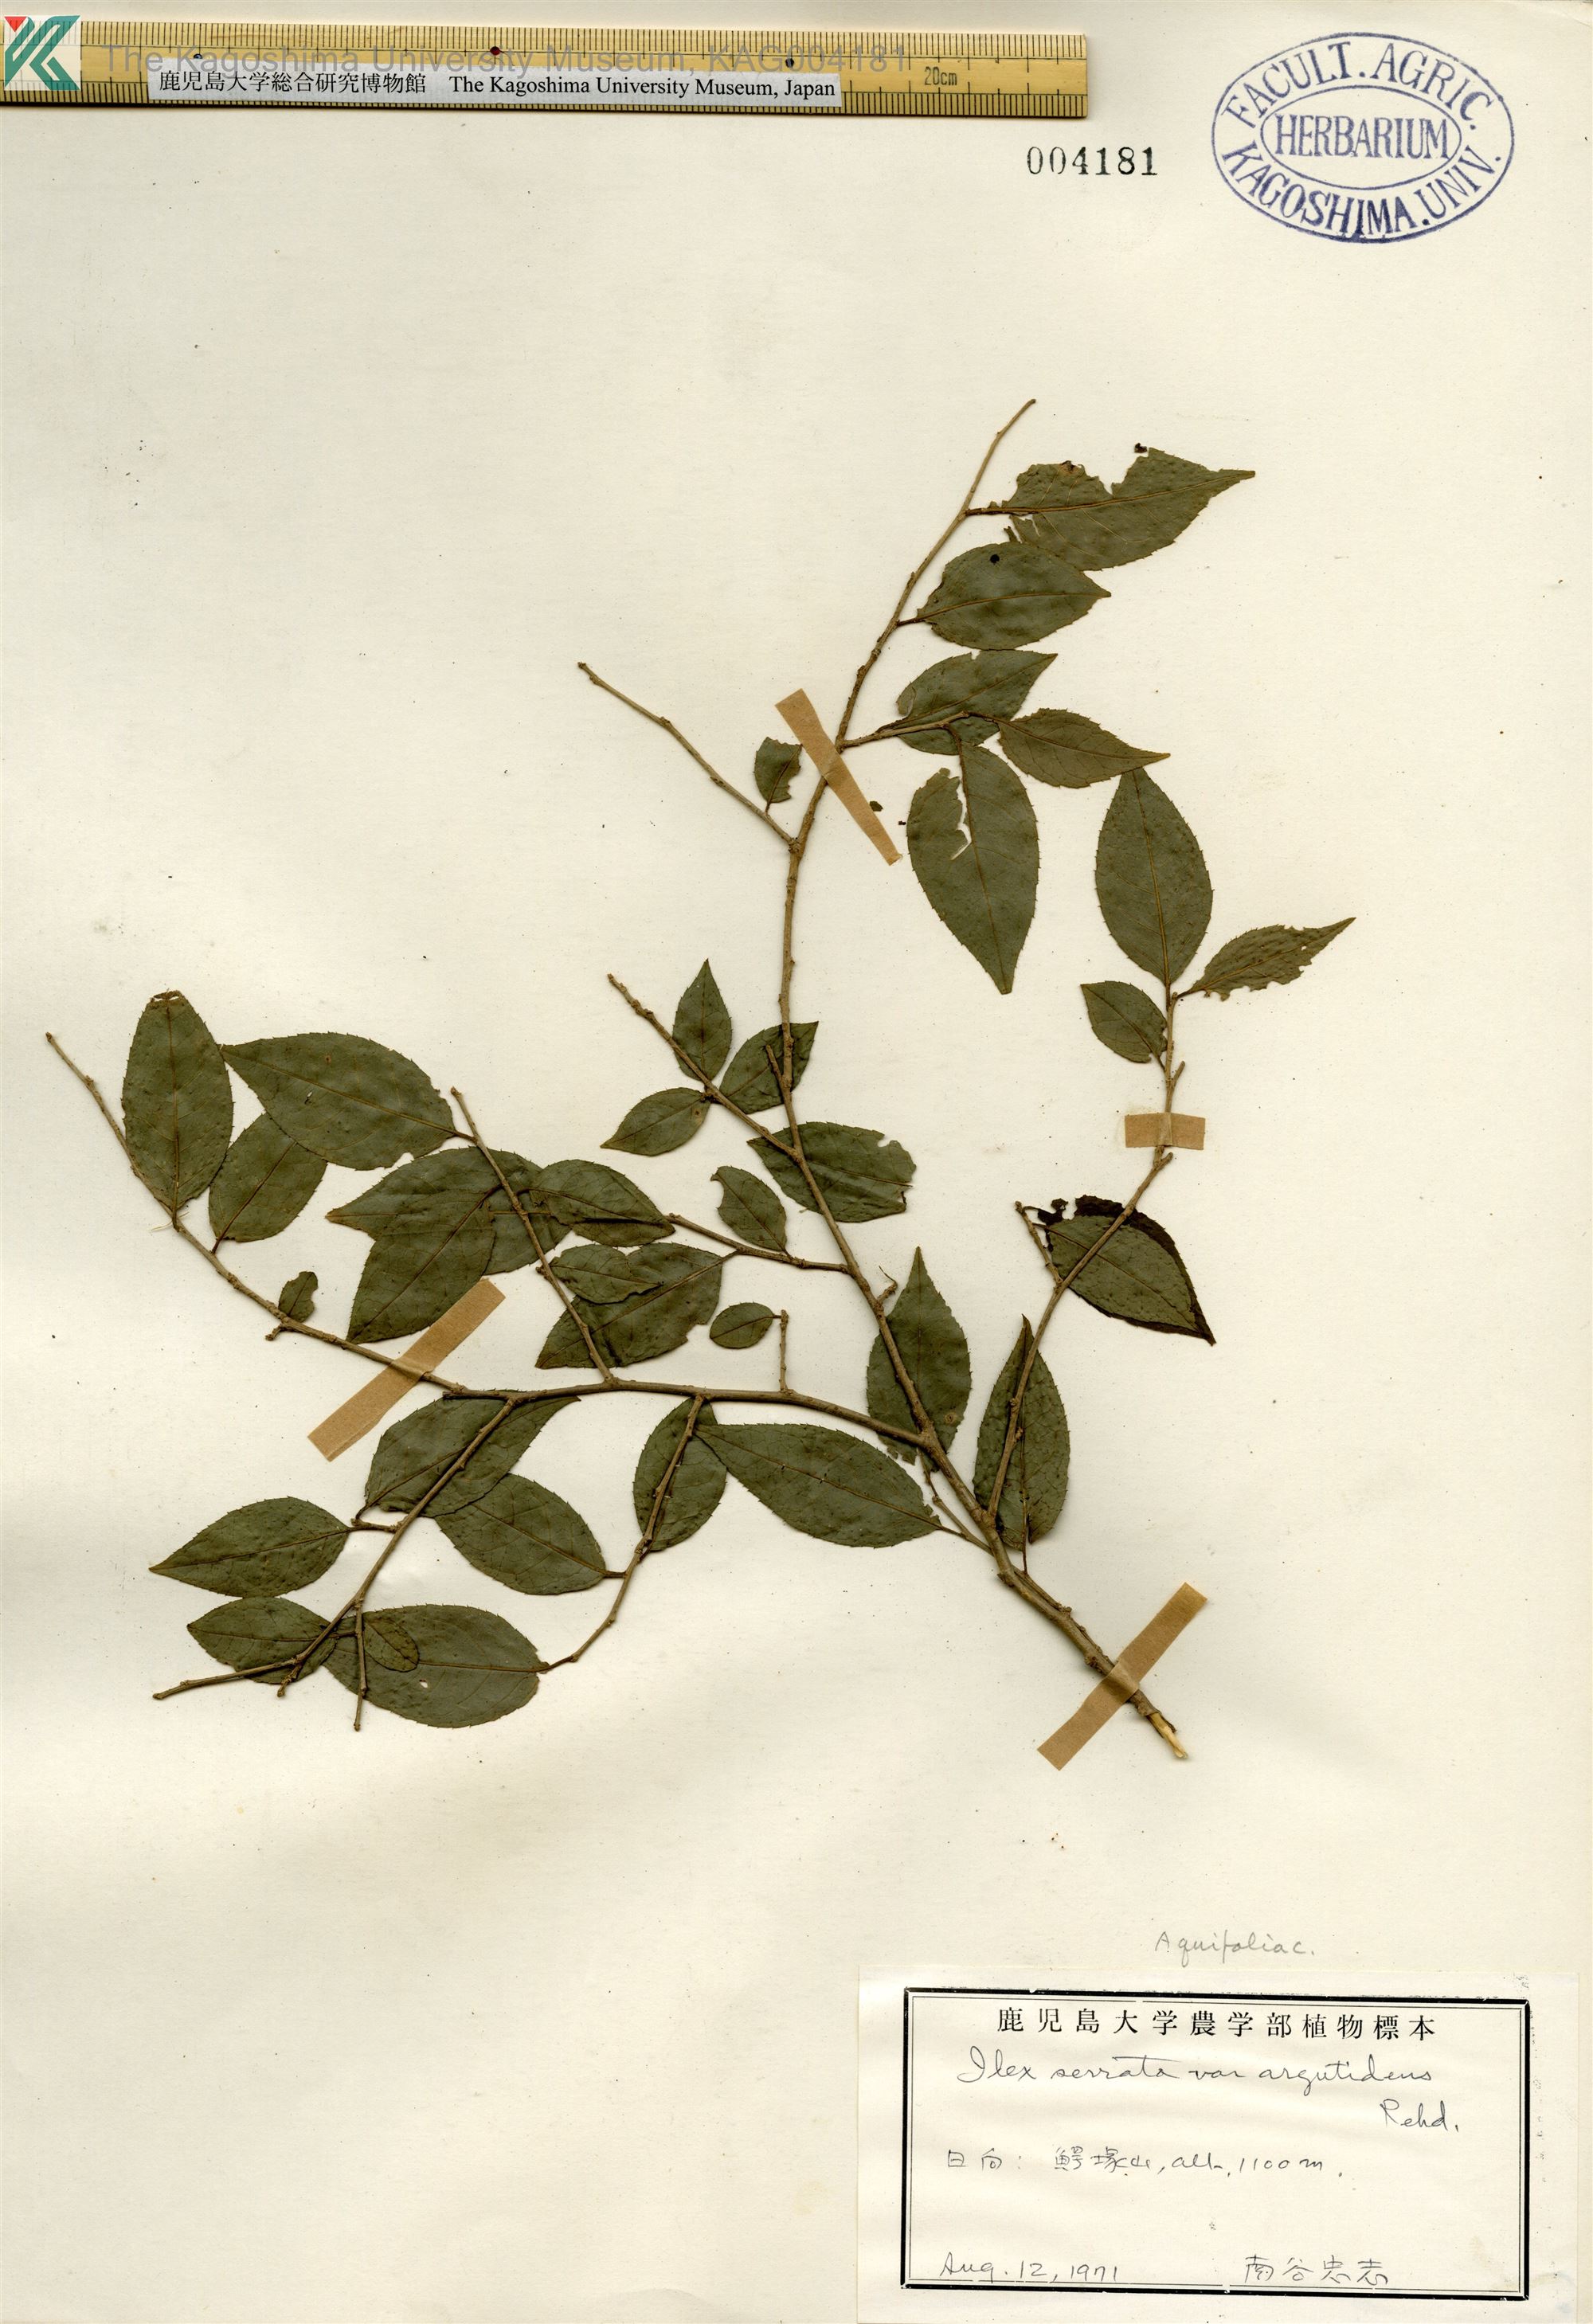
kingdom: Plantae
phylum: Tracheophyta
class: Magnoliopsida
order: Aquifoliales
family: Aquifoliaceae
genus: Ilex
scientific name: Ilex serrata
